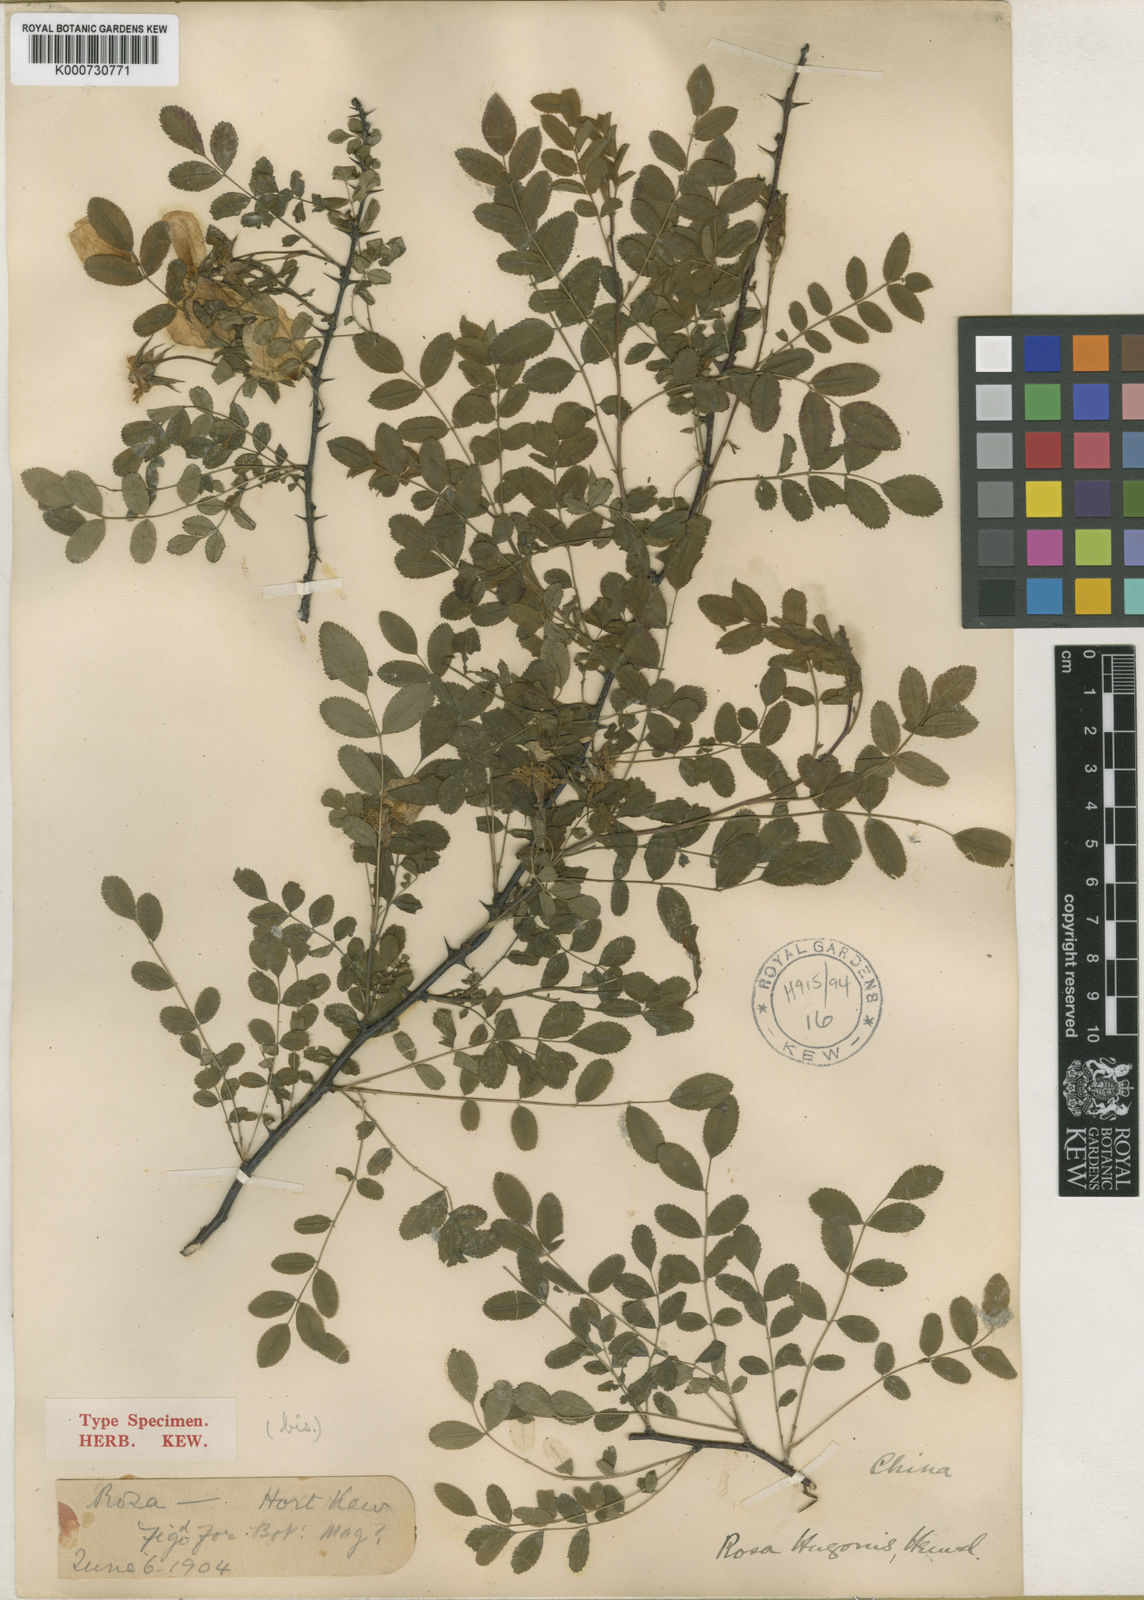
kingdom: Plantae
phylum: Tracheophyta
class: Magnoliopsida
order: Rosales
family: Rosaceae
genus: Rosa
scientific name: Rosa xanthina
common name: Yellow rose
